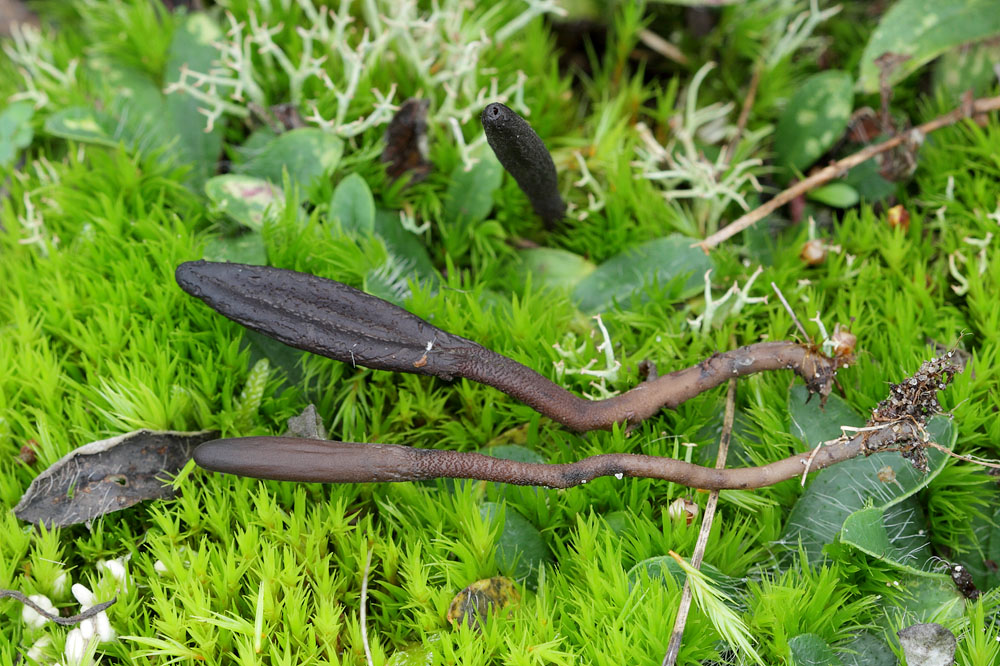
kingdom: Fungi
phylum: Ascomycota
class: Geoglossomycetes
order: Geoglossales
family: Geoglossaceae
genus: Hemileucoglossum
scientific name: Hemileucoglossum elongatum
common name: småsporet jordtunge
